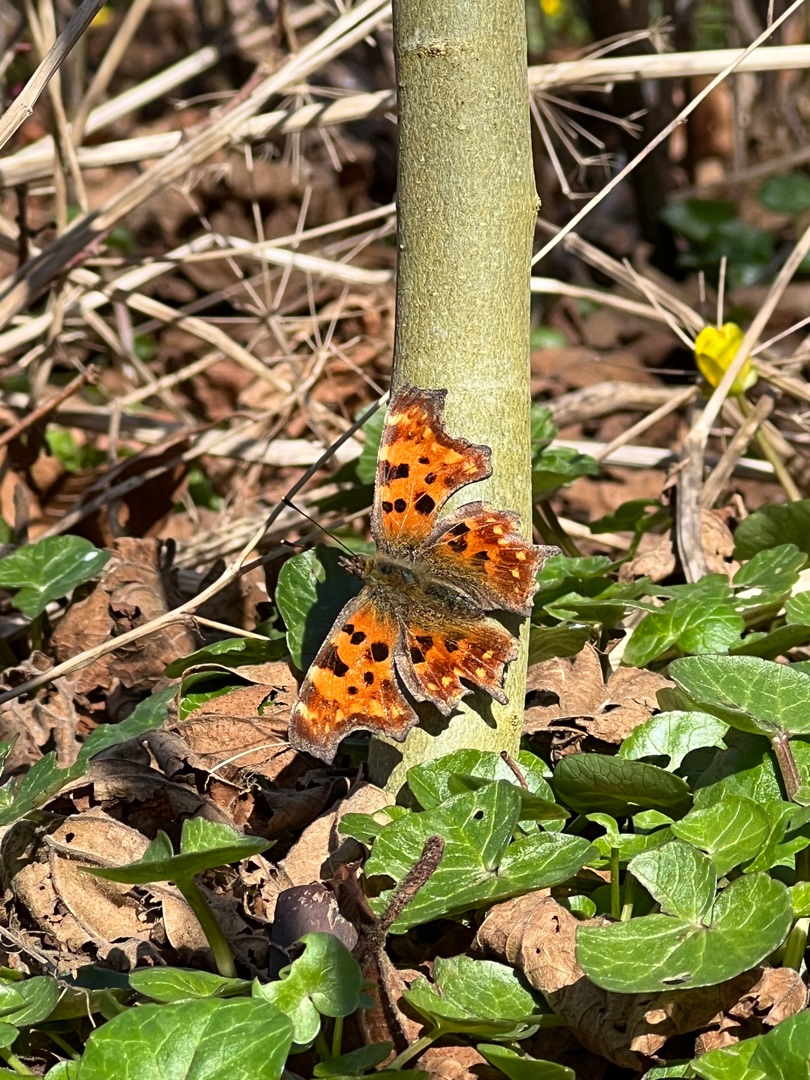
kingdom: Animalia
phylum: Arthropoda
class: Insecta
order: Lepidoptera
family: Nymphalidae
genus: Polygonia
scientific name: Polygonia c-album
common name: Det hvide C
